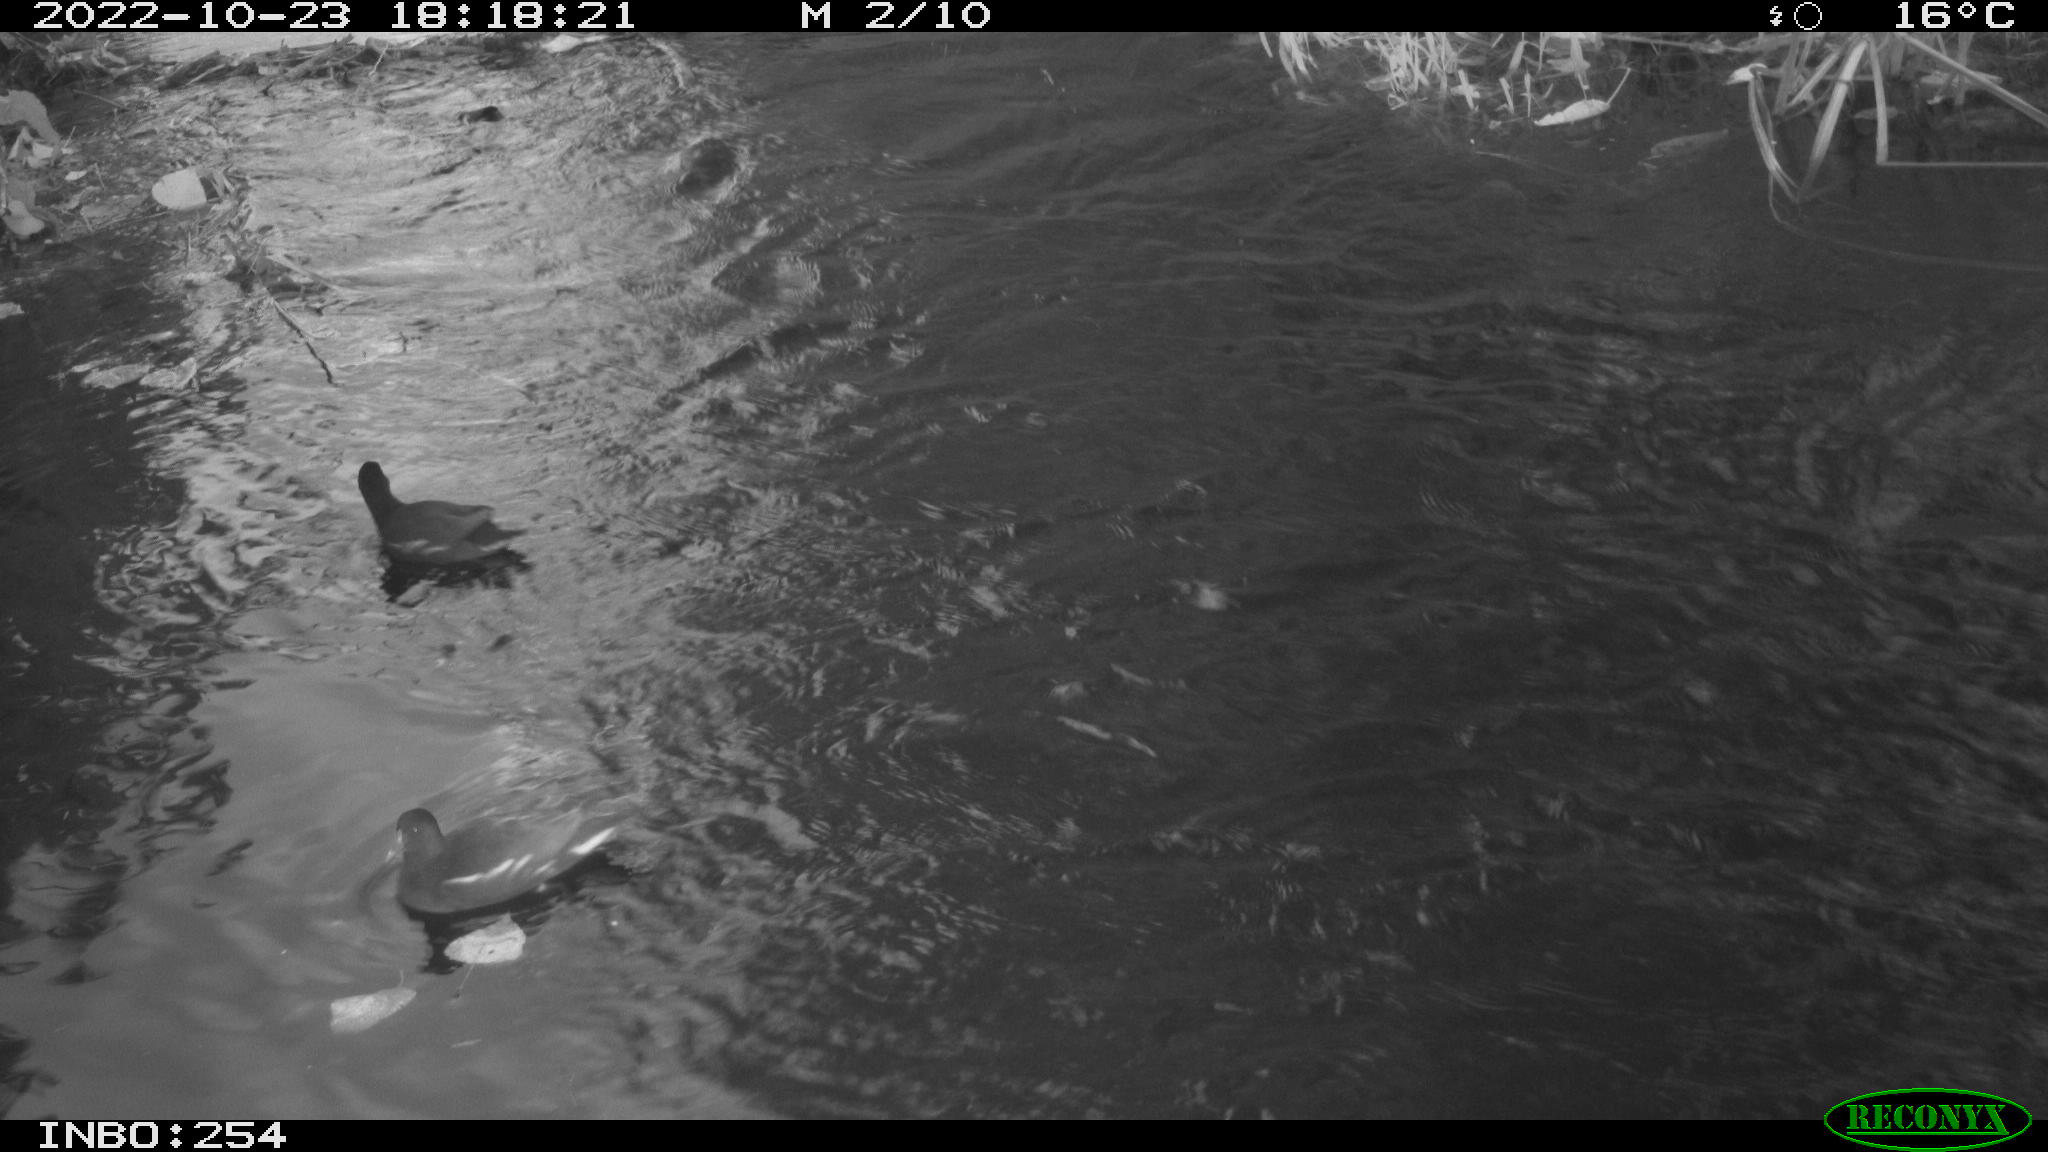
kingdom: Animalia
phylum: Chordata
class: Aves
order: Anseriformes
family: Anatidae
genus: Anas
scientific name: Anas
